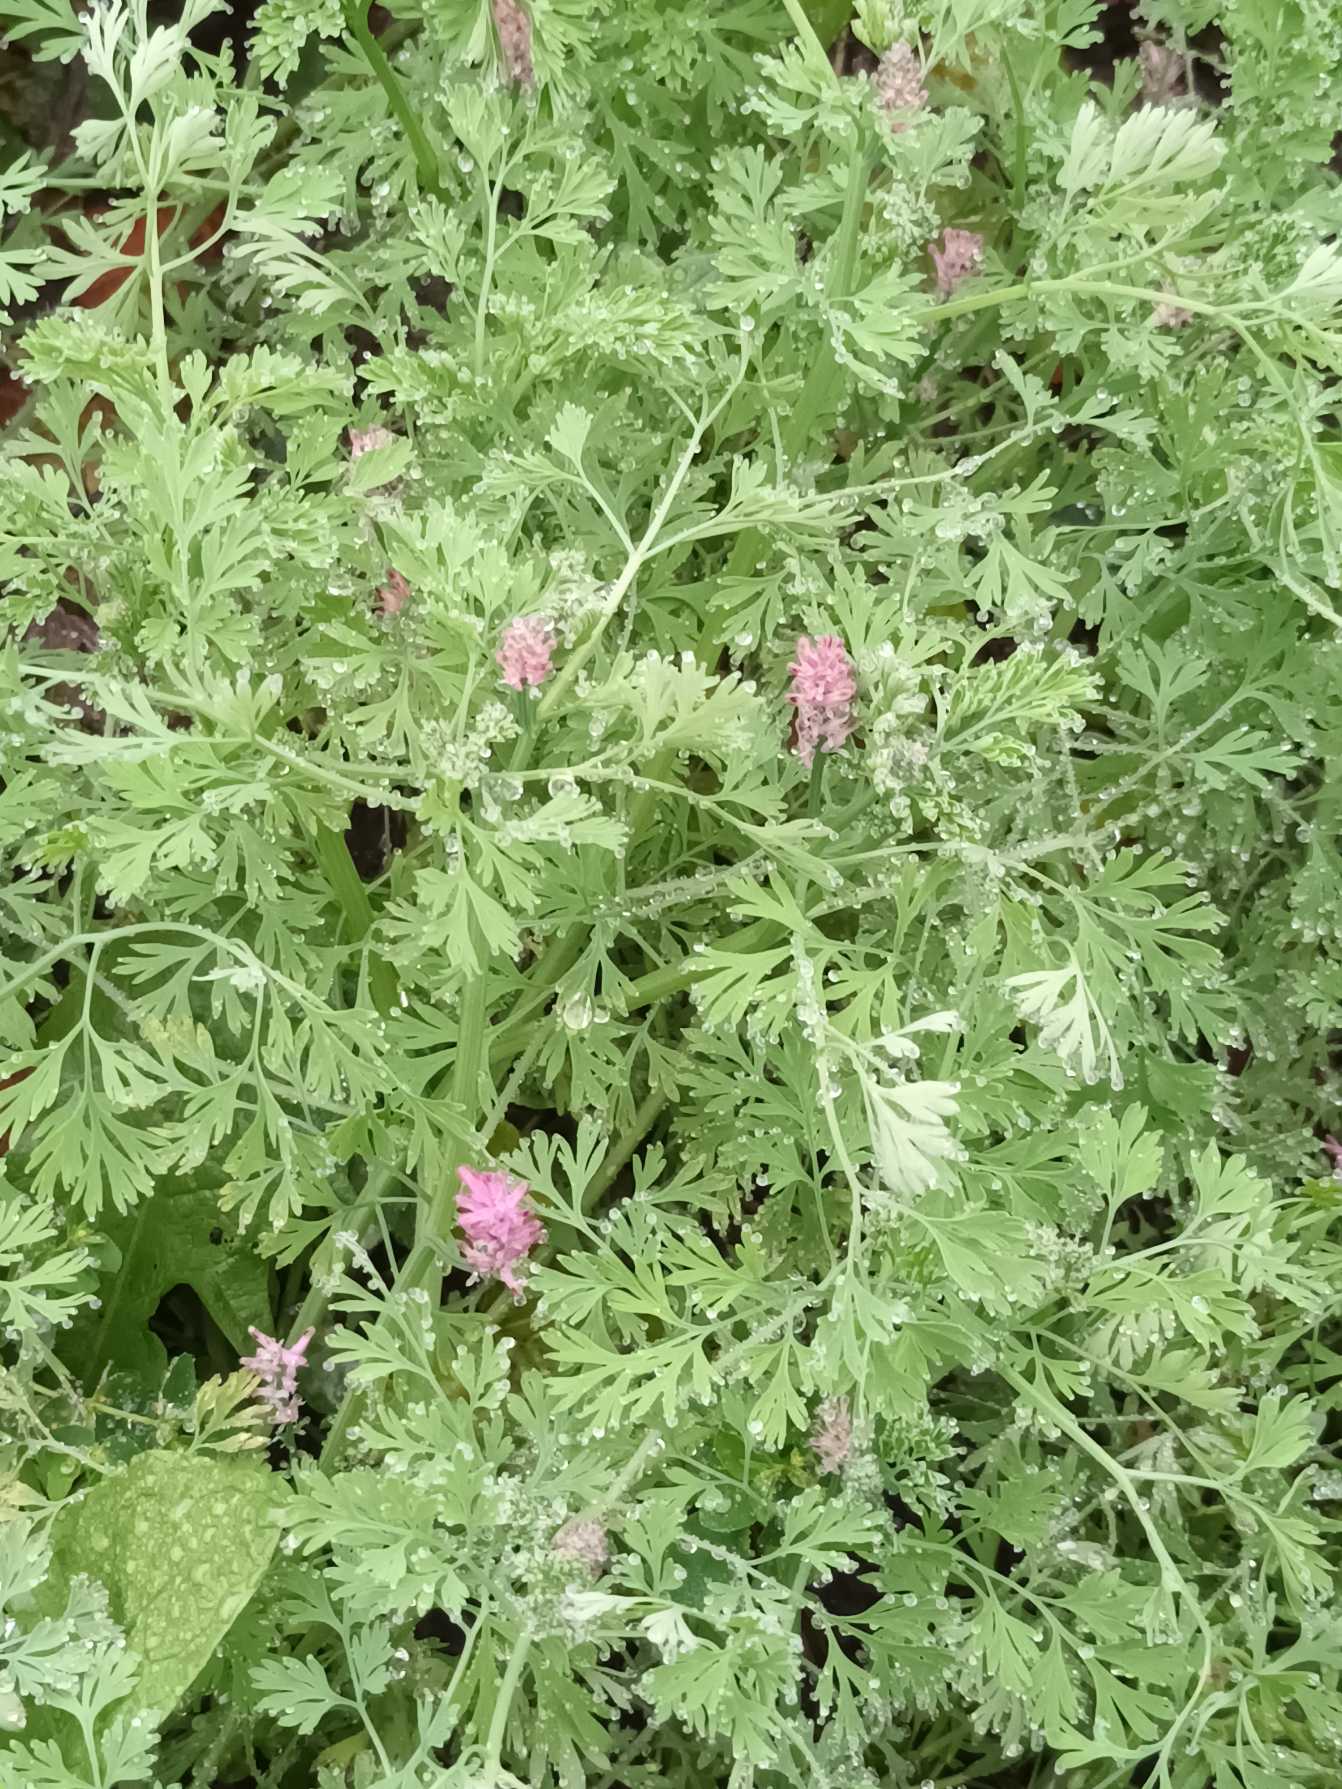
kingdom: Plantae
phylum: Tracheophyta
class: Magnoliopsida
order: Ranunculales
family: Papaveraceae
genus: Fumaria
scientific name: Fumaria officinalis
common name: Læge-jordrøg
